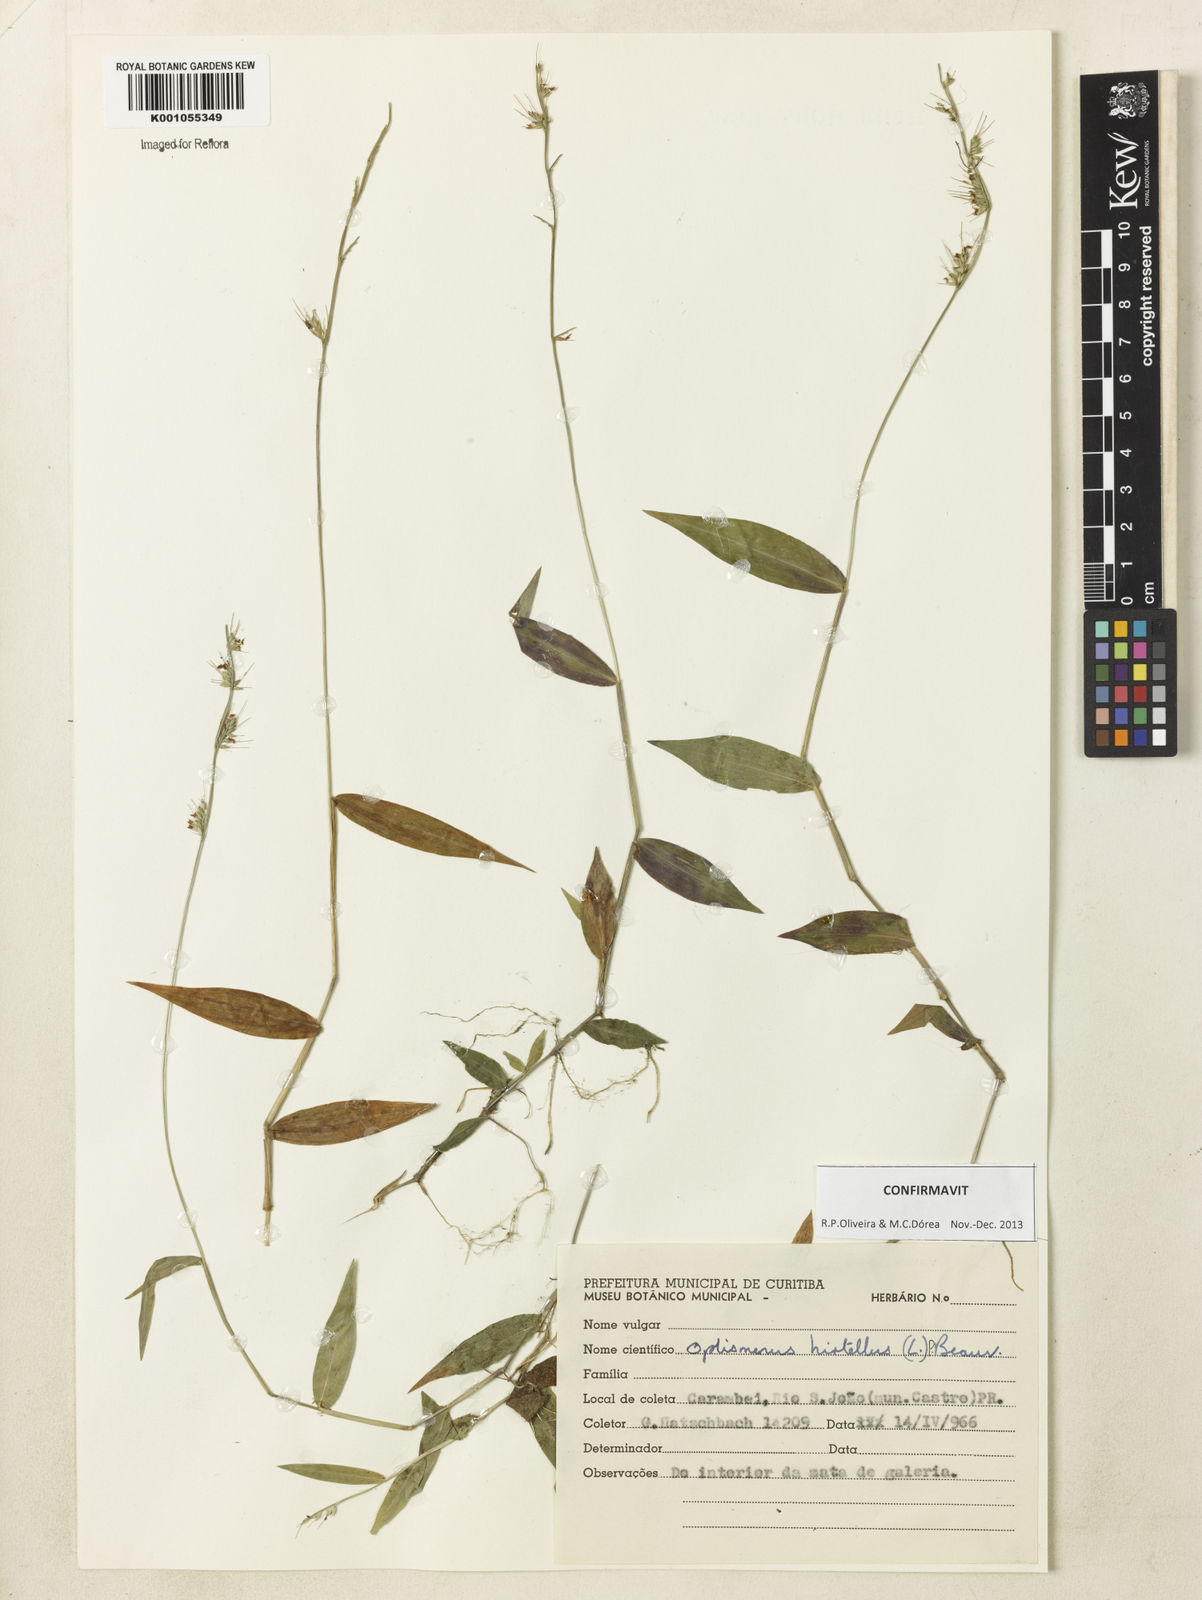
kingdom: Plantae
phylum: Tracheophyta
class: Liliopsida
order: Poales
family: Poaceae
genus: Oplismenus
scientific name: Oplismenus hirtellus
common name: Basketgrass
